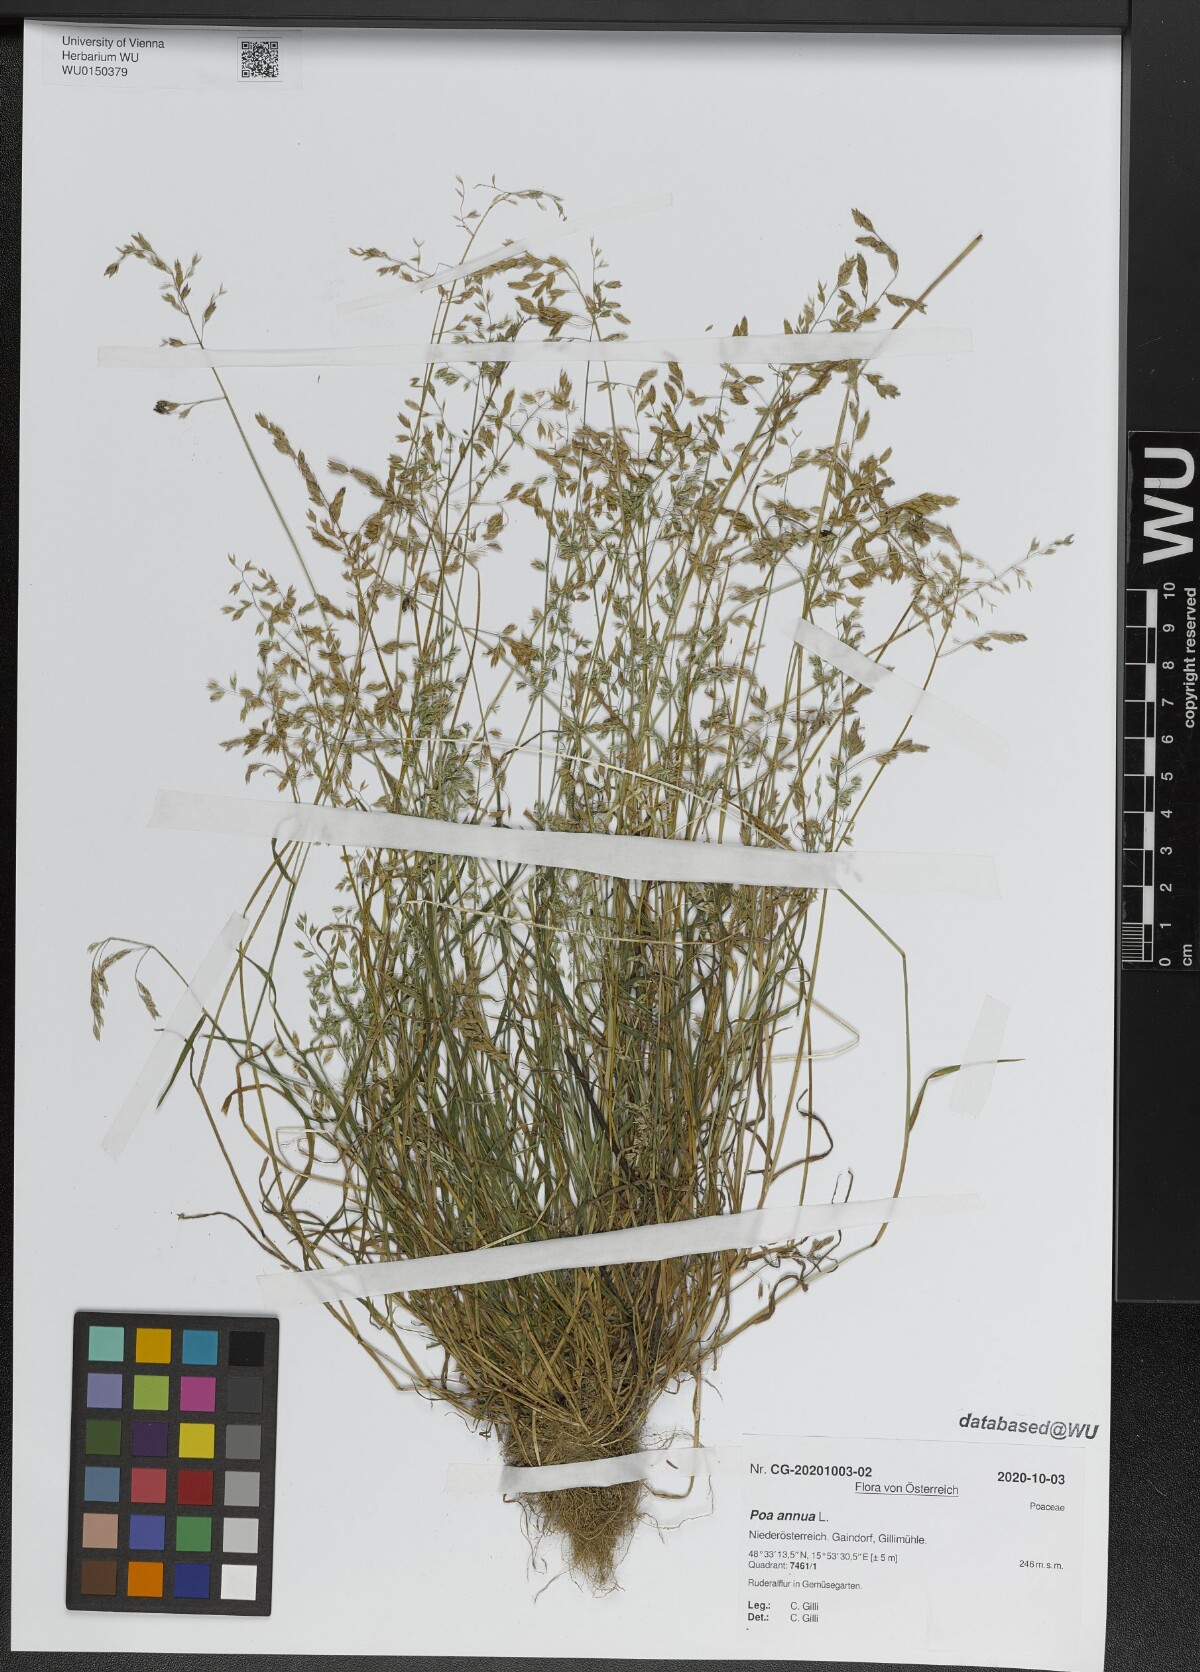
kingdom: Plantae
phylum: Tracheophyta
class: Liliopsida
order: Poales
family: Poaceae
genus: Poa
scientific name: Poa annua
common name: Annual bluegrass
